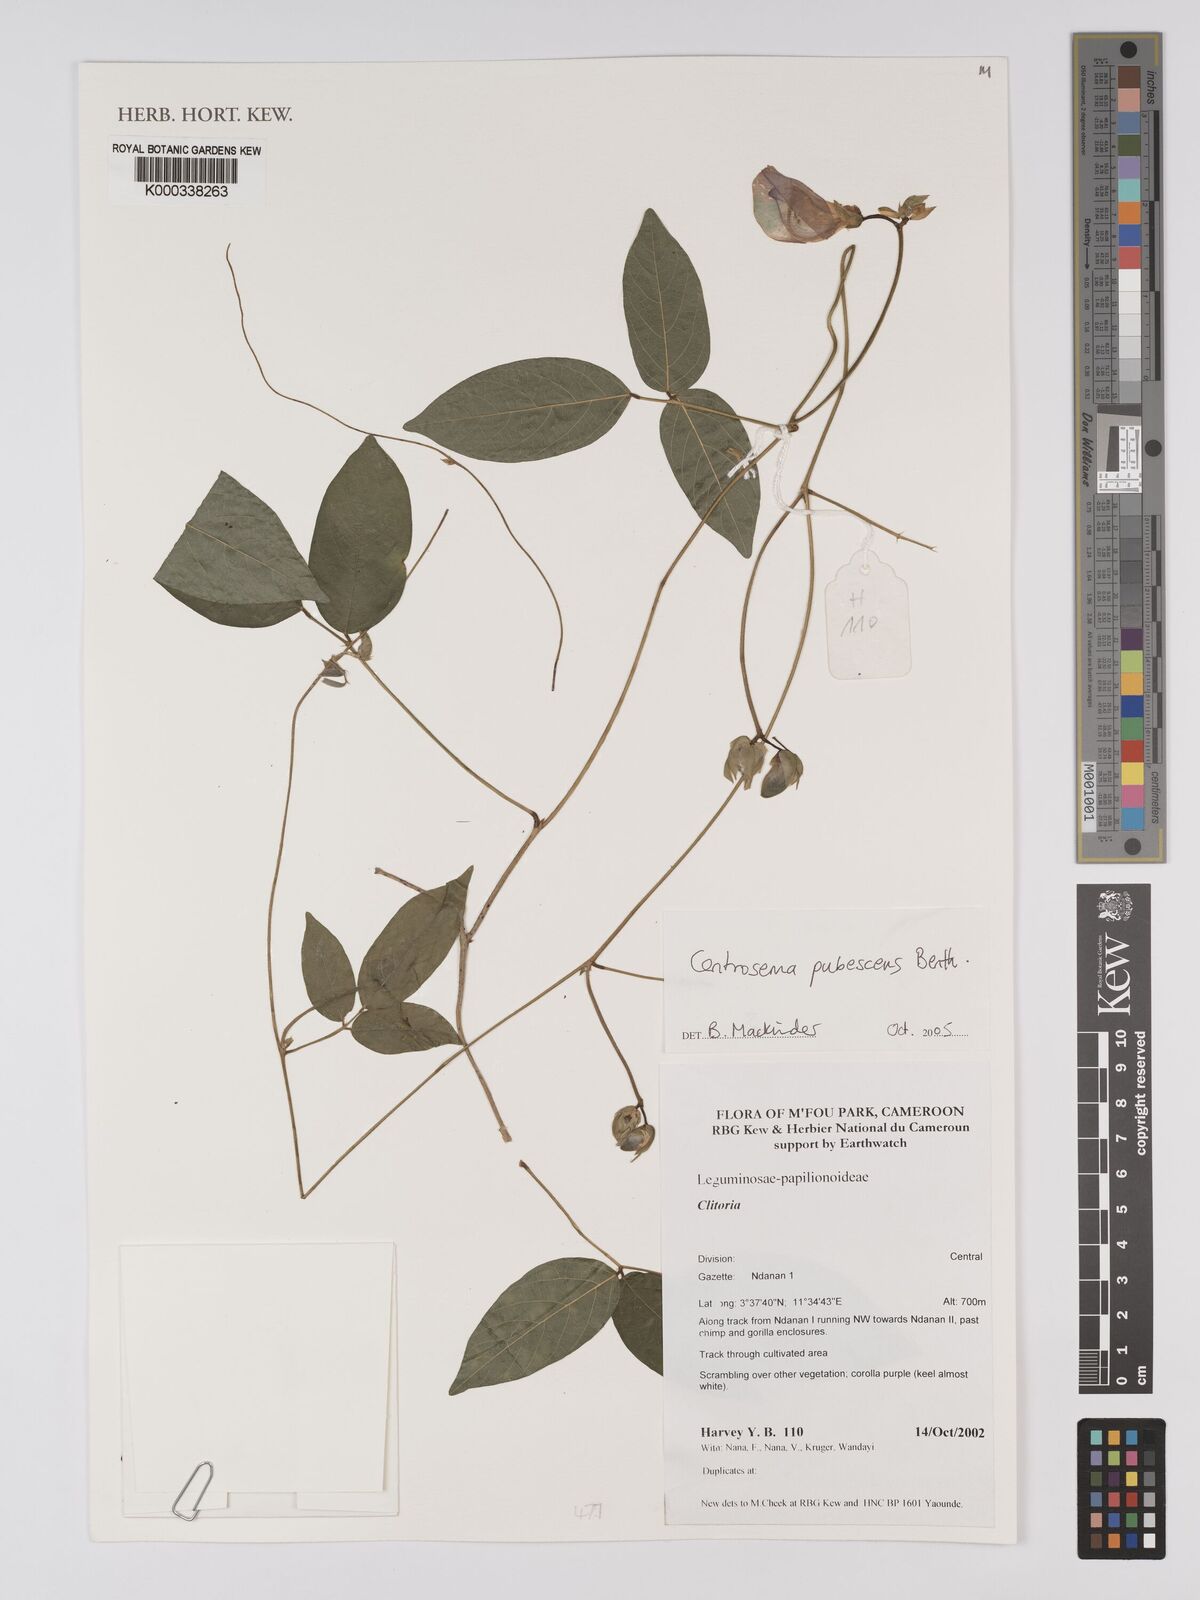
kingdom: Plantae
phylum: Tracheophyta
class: Magnoliopsida
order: Fabales
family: Fabaceae
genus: Centrosema
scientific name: Centrosema pubescens
